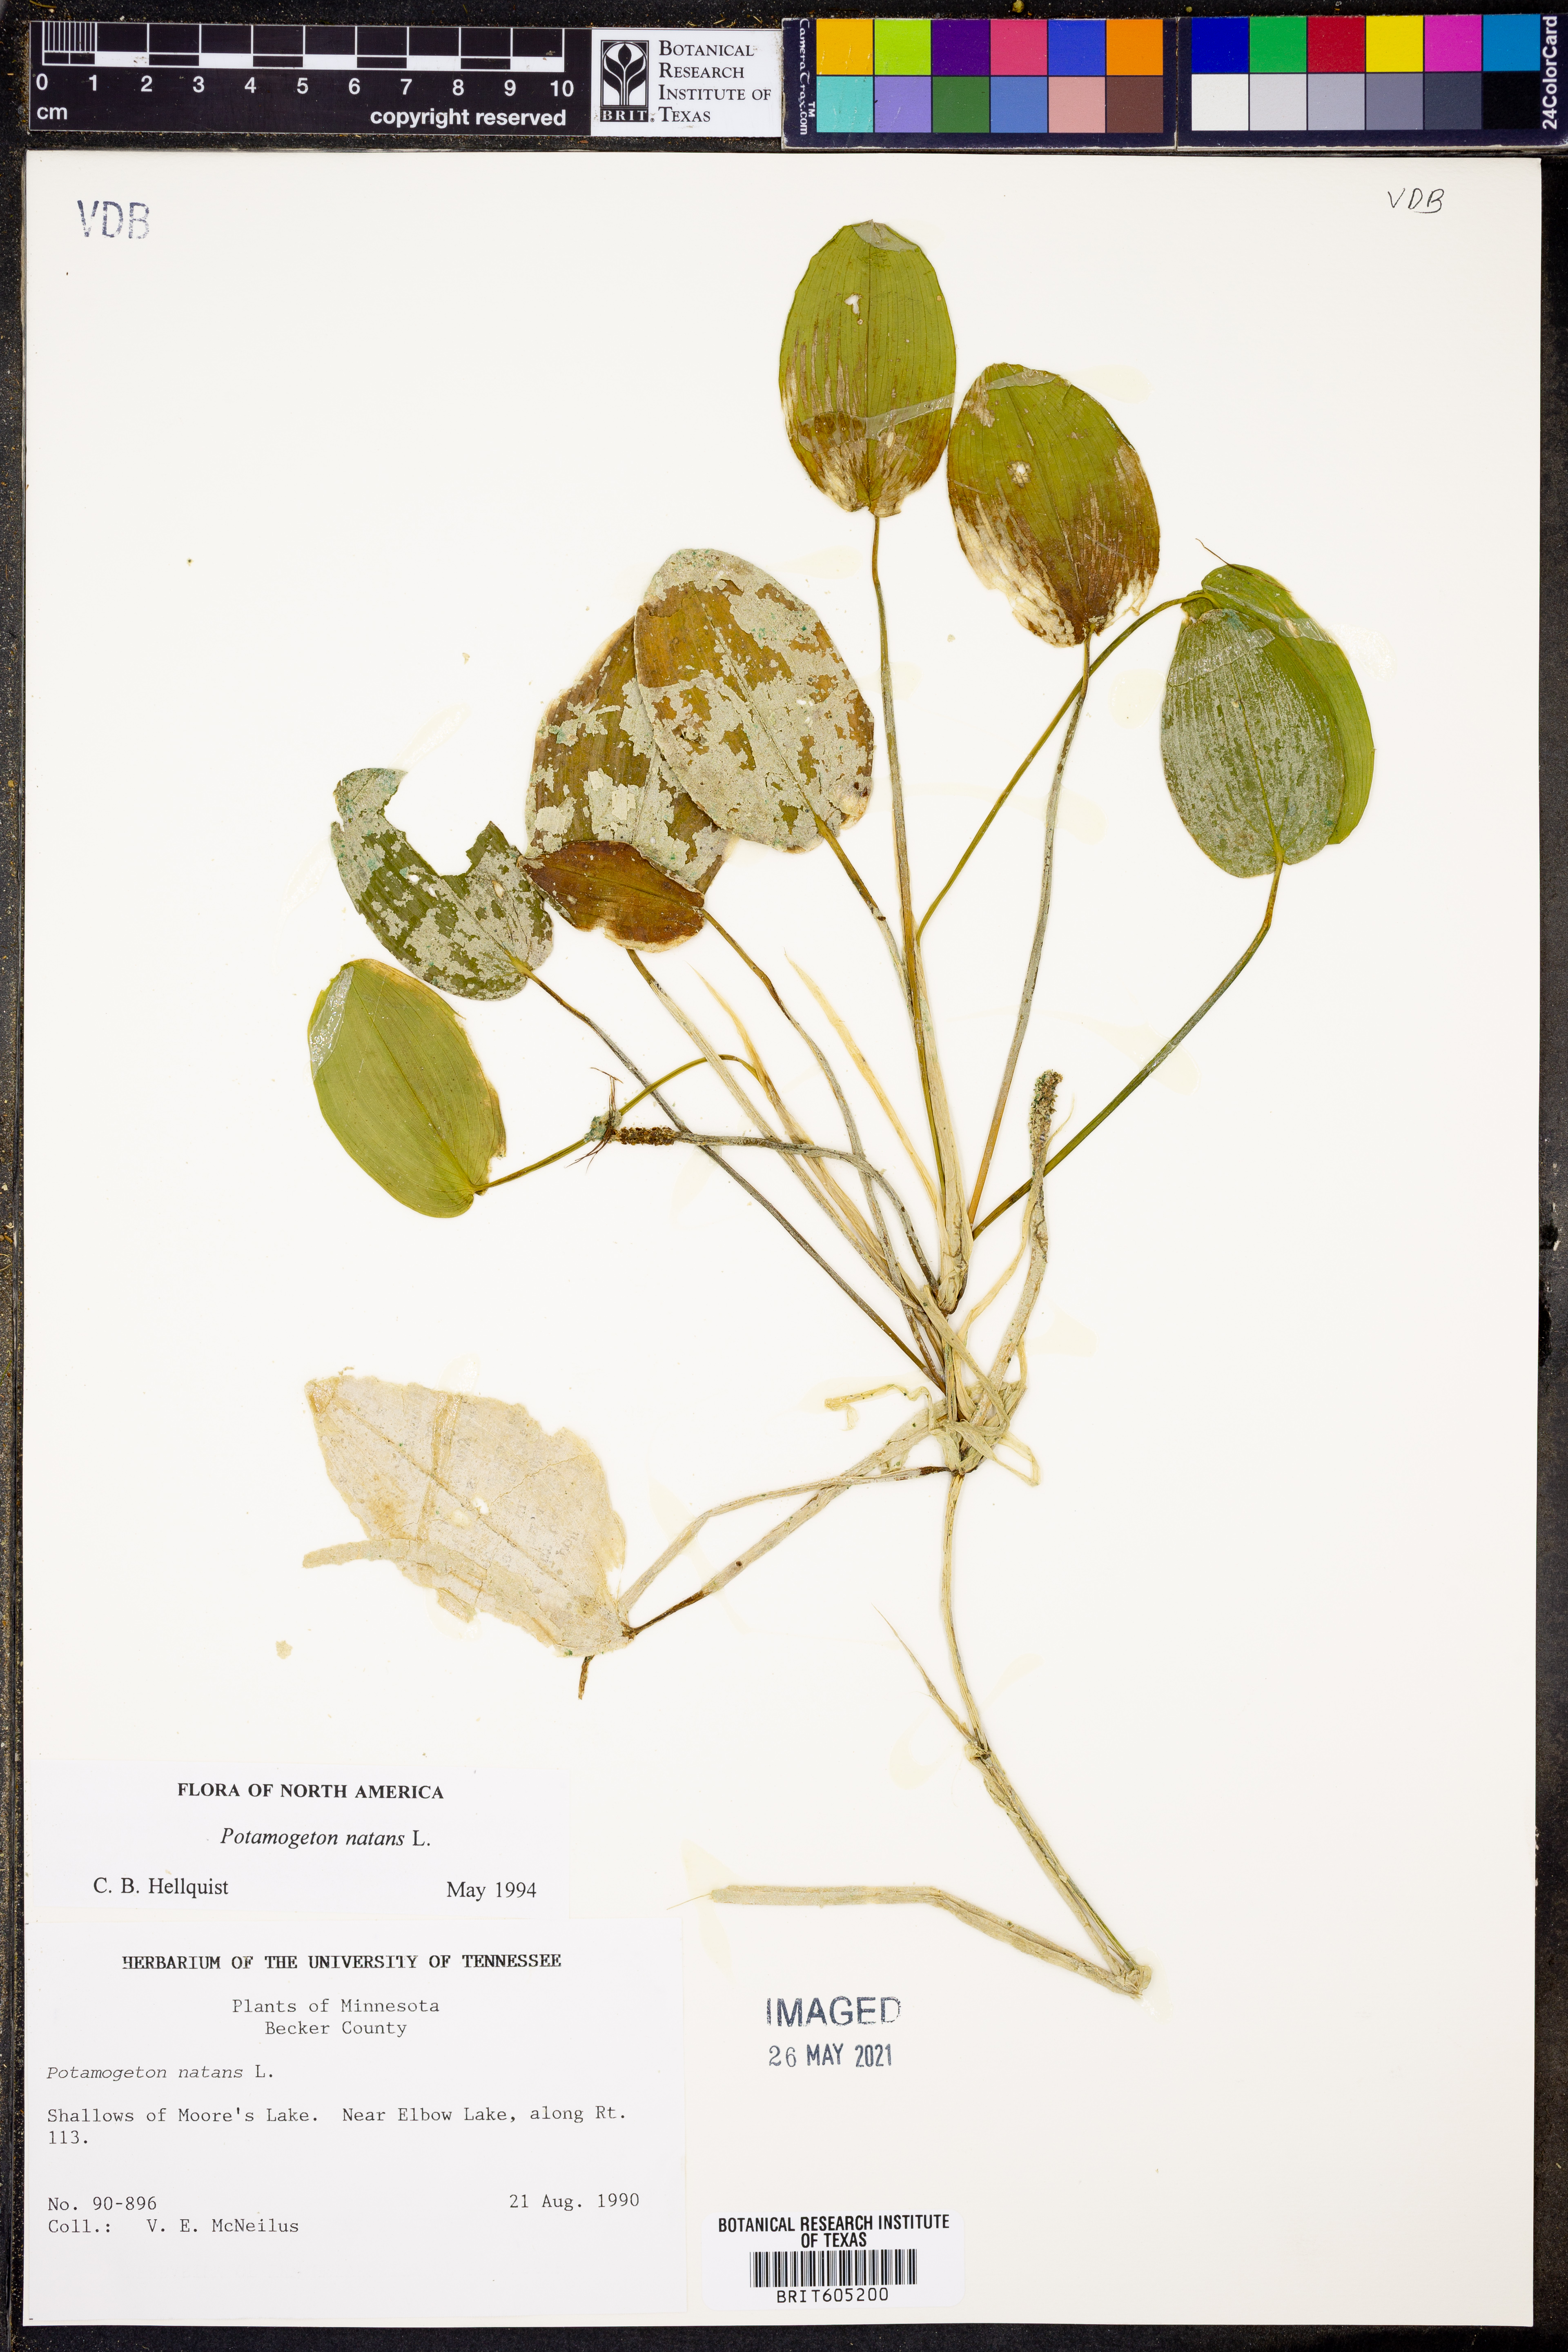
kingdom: Plantae
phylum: Tracheophyta
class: Liliopsida
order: Alismatales
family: Potamogetonaceae
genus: Potamogeton
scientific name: Potamogeton natans
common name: Broad-leaved pondweed
